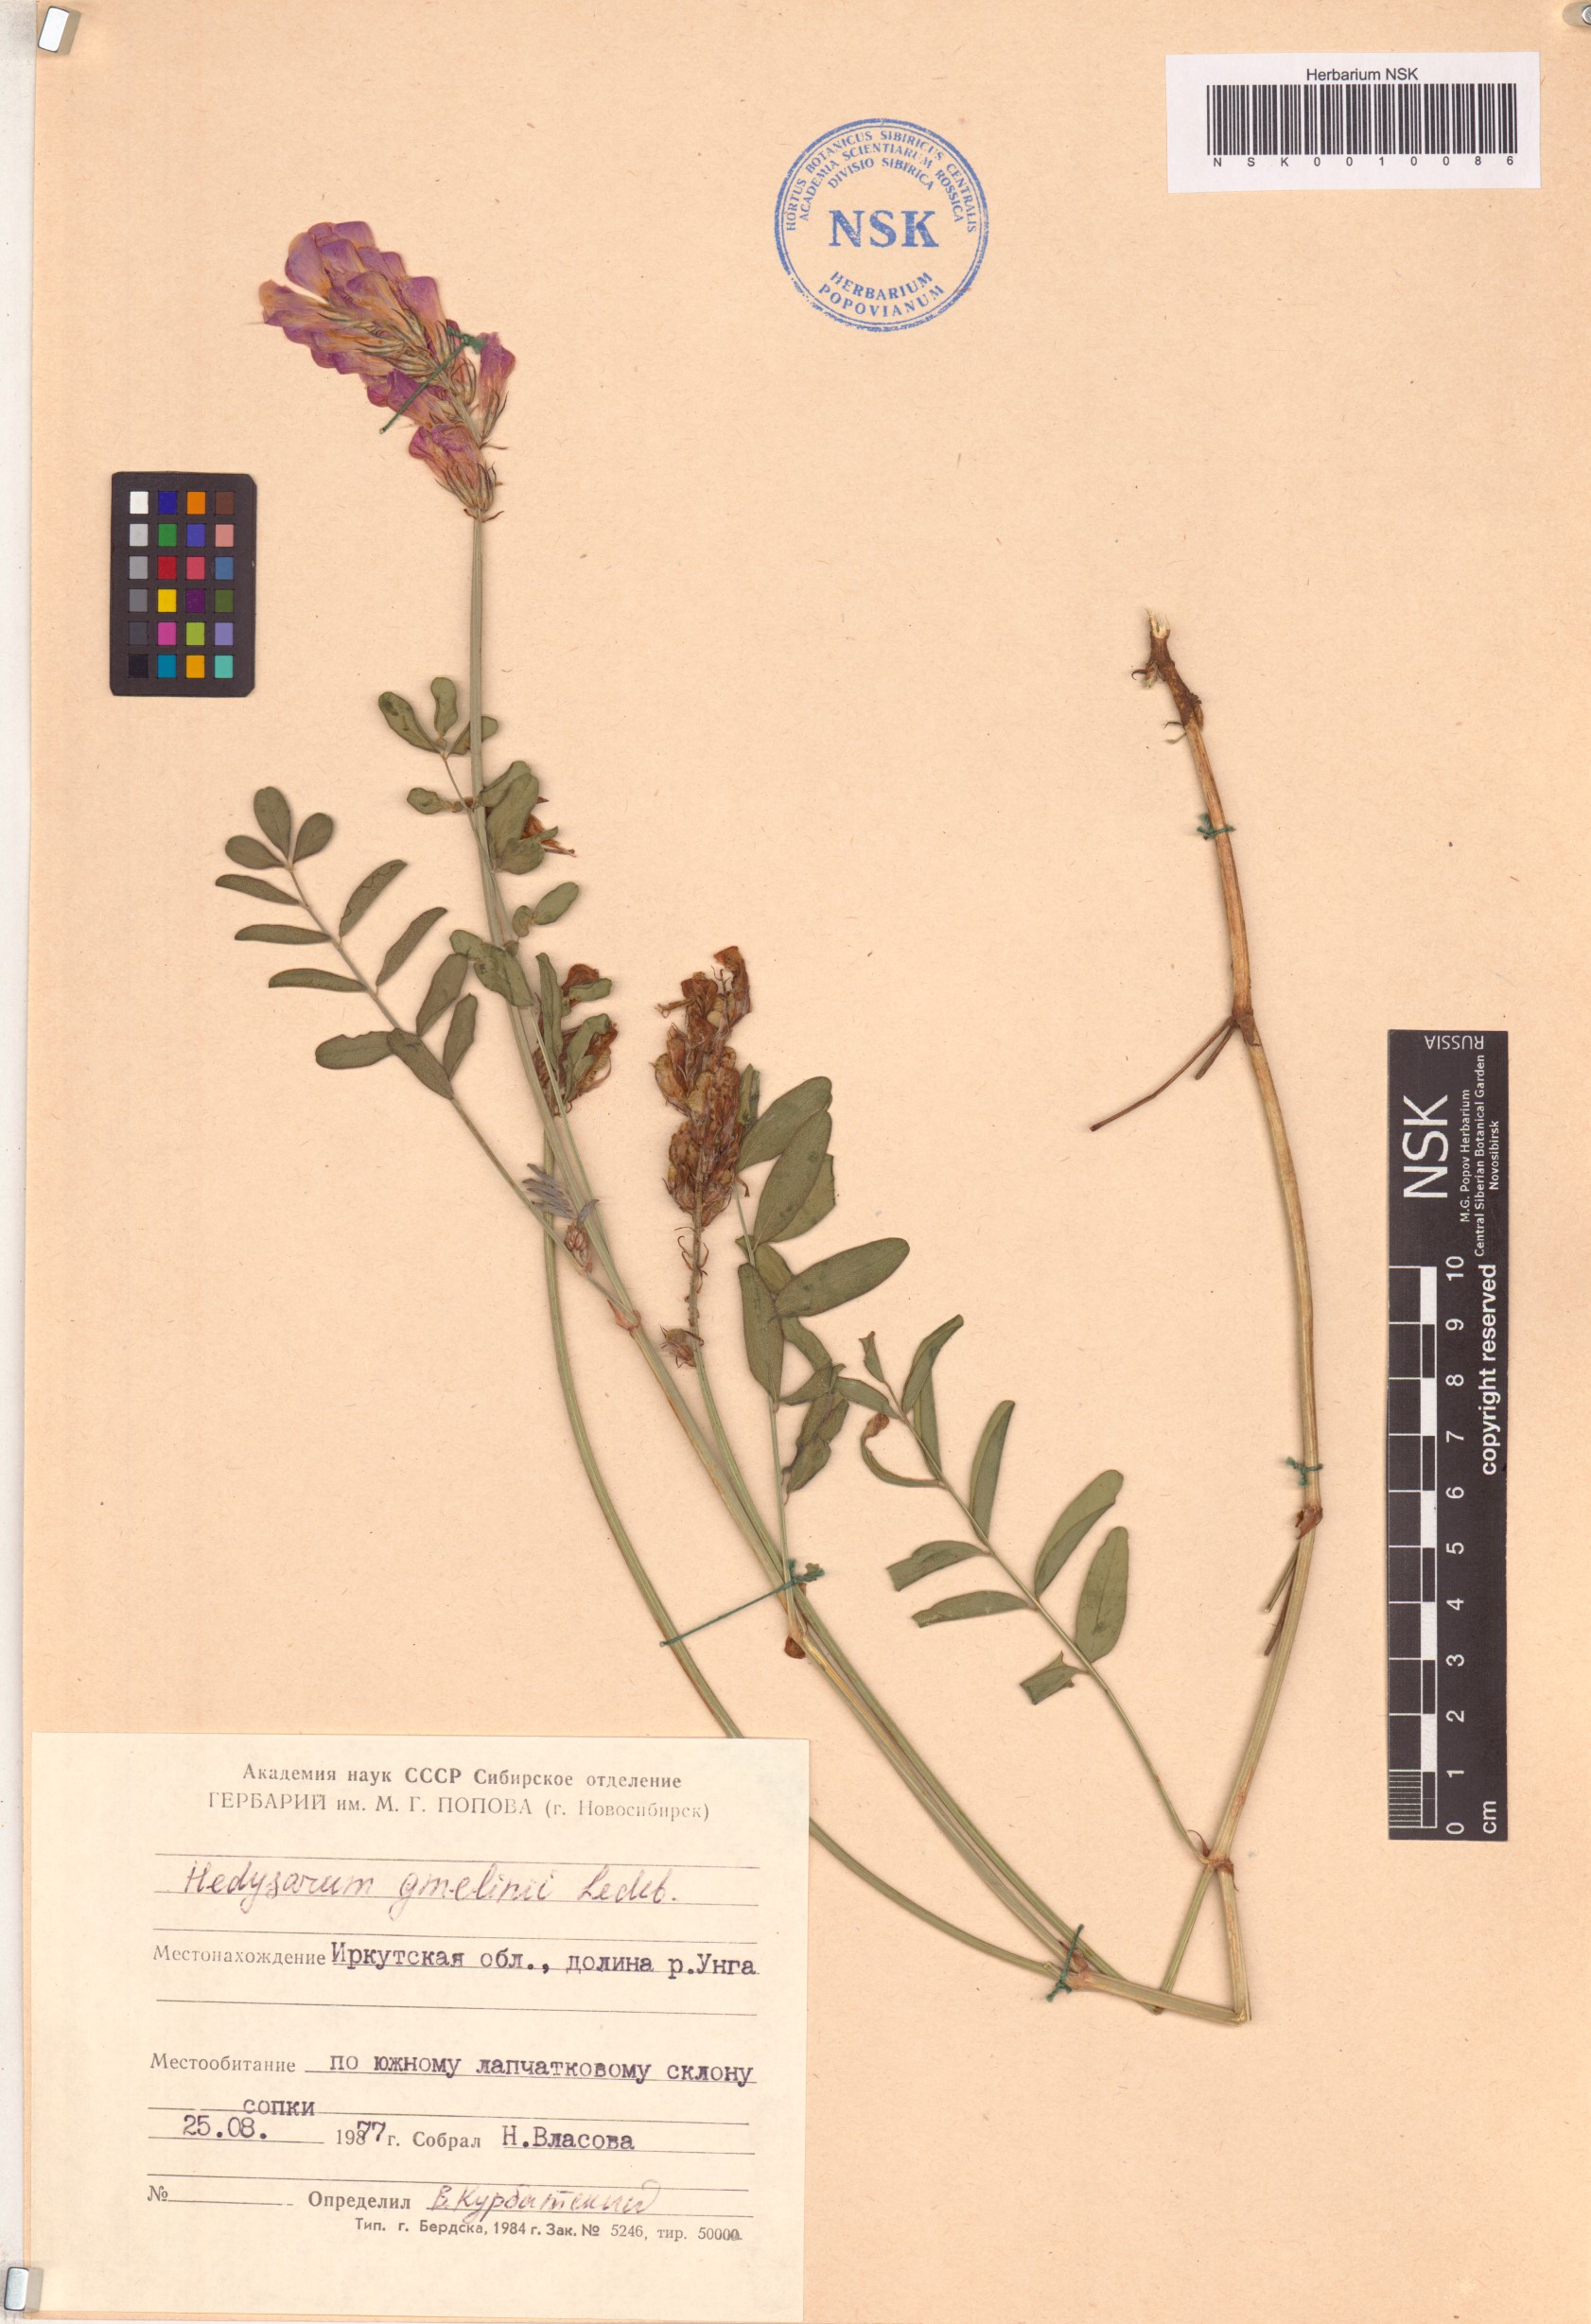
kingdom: Plantae
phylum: Tracheophyta
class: Magnoliopsida
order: Fabales
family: Fabaceae
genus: Hedysarum
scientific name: Hedysarum gmelinii
